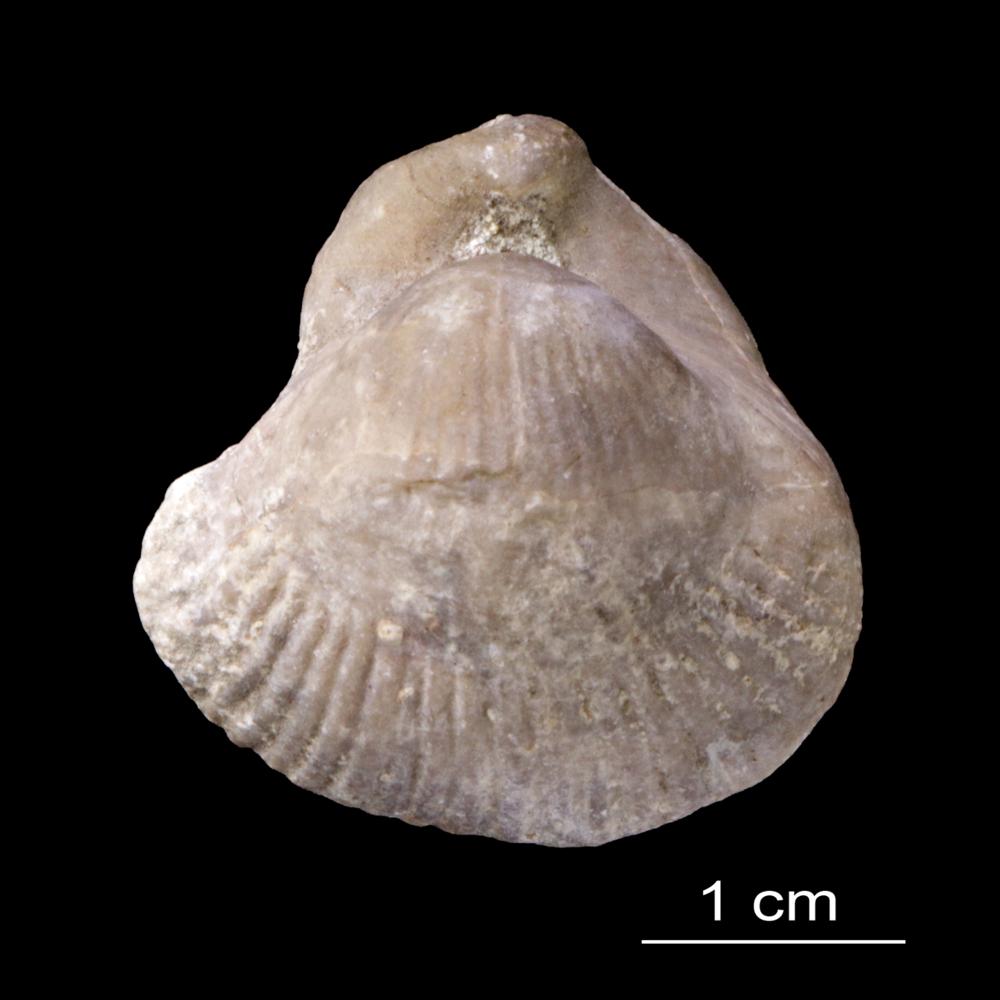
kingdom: Animalia
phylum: Brachiopoda
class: Rhynchonellata
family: Pentameridae
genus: Pentamerus
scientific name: Pentamerus
